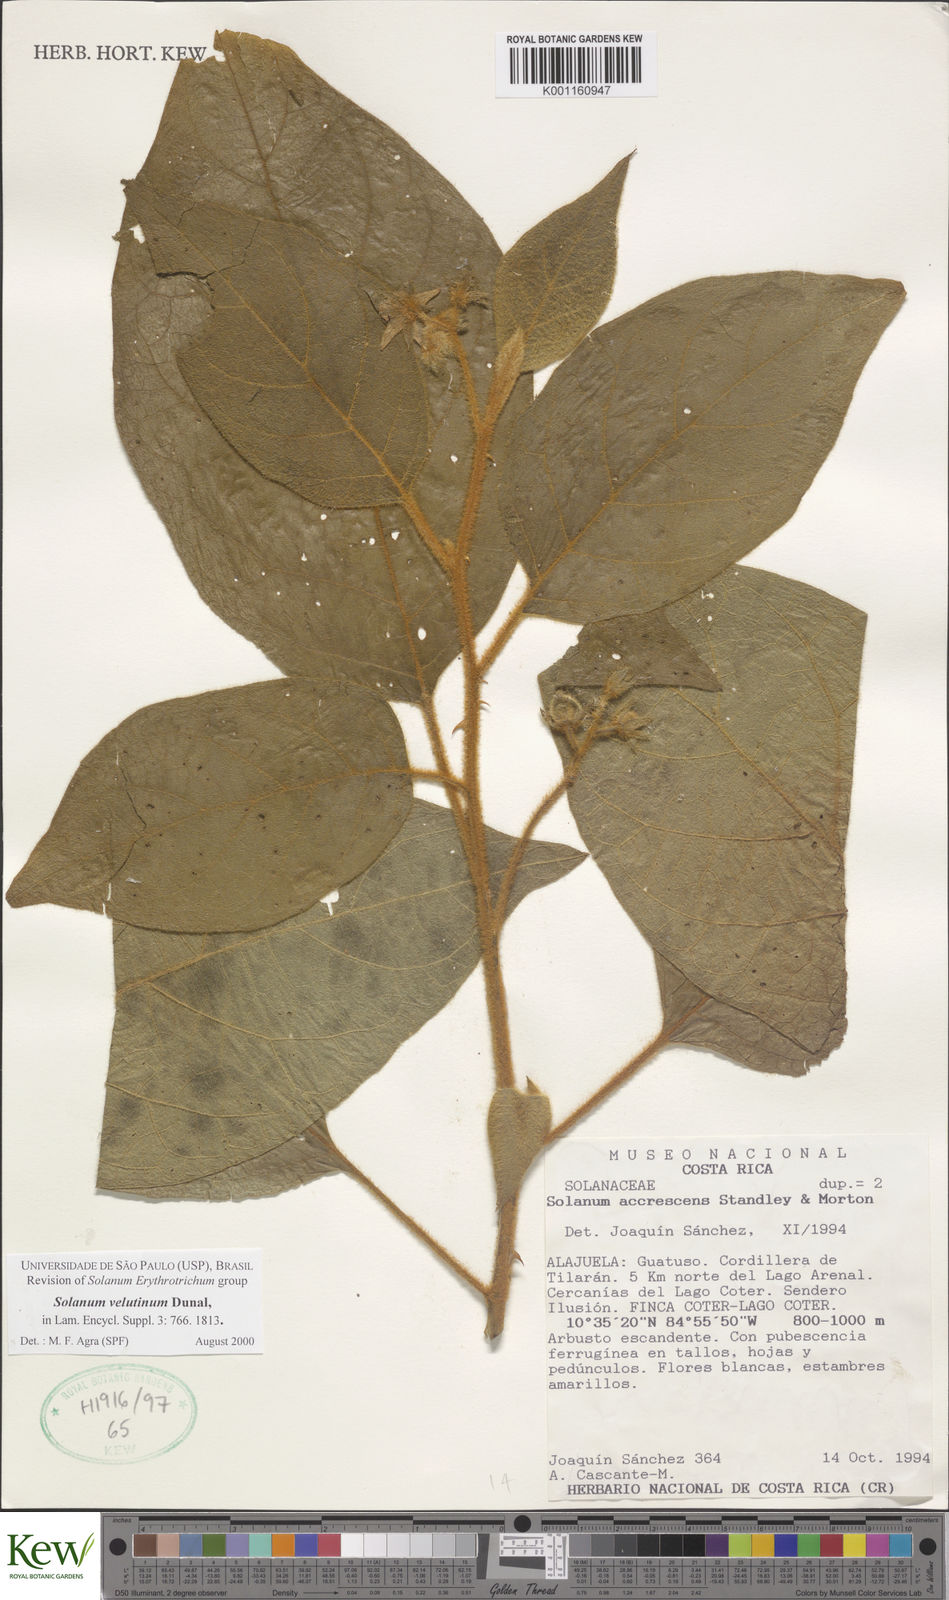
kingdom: Plantae
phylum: Tracheophyta
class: Magnoliopsida
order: Solanales
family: Solanaceae
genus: Solanum
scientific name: Solanum velutinum
